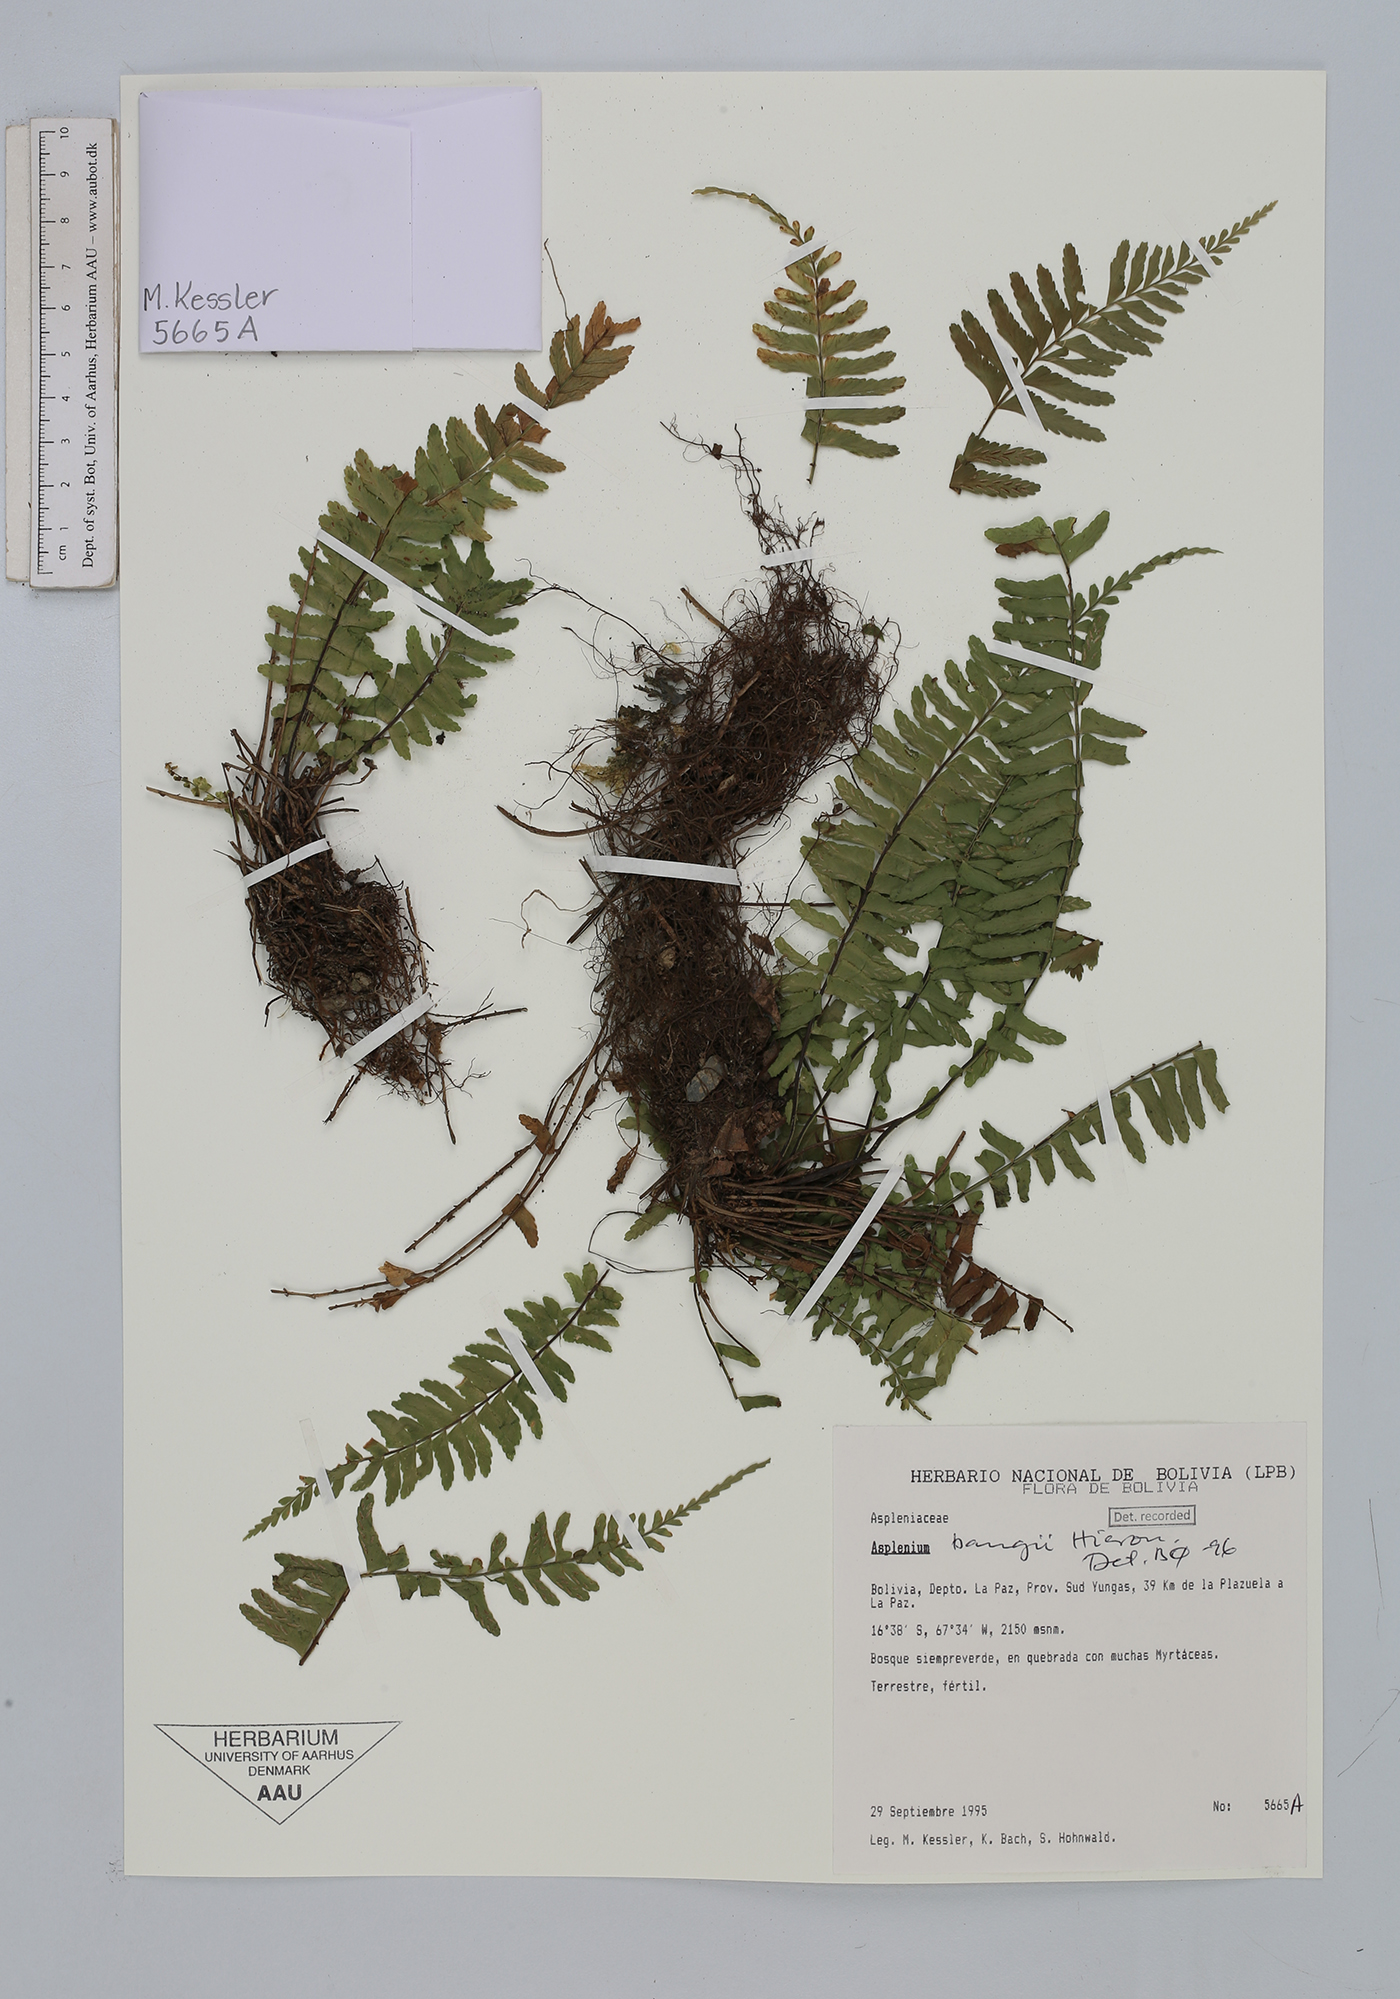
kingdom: Plantae
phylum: Tracheophyta
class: Polypodiopsida
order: Polypodiales
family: Aspleniaceae
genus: Asplenium
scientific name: Asplenium bangii
